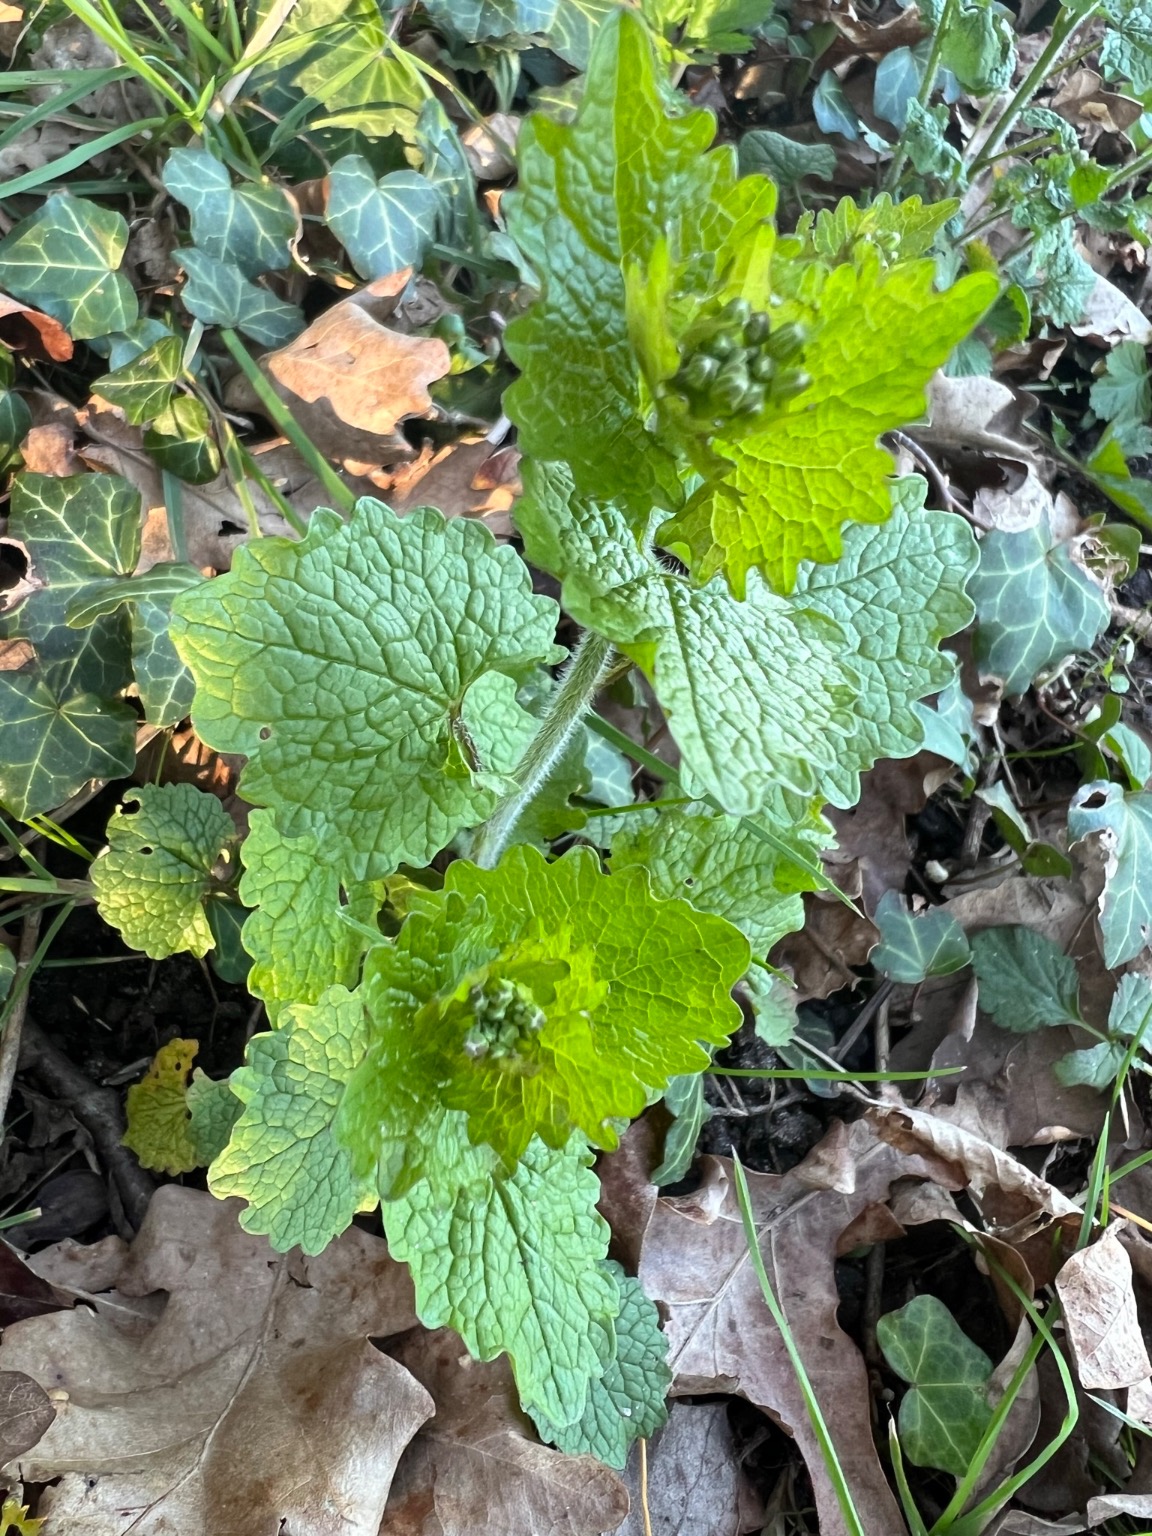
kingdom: Plantae
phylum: Tracheophyta
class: Magnoliopsida
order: Brassicales
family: Brassicaceae
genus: Alliaria
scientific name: Alliaria petiolata
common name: Løgkarse
